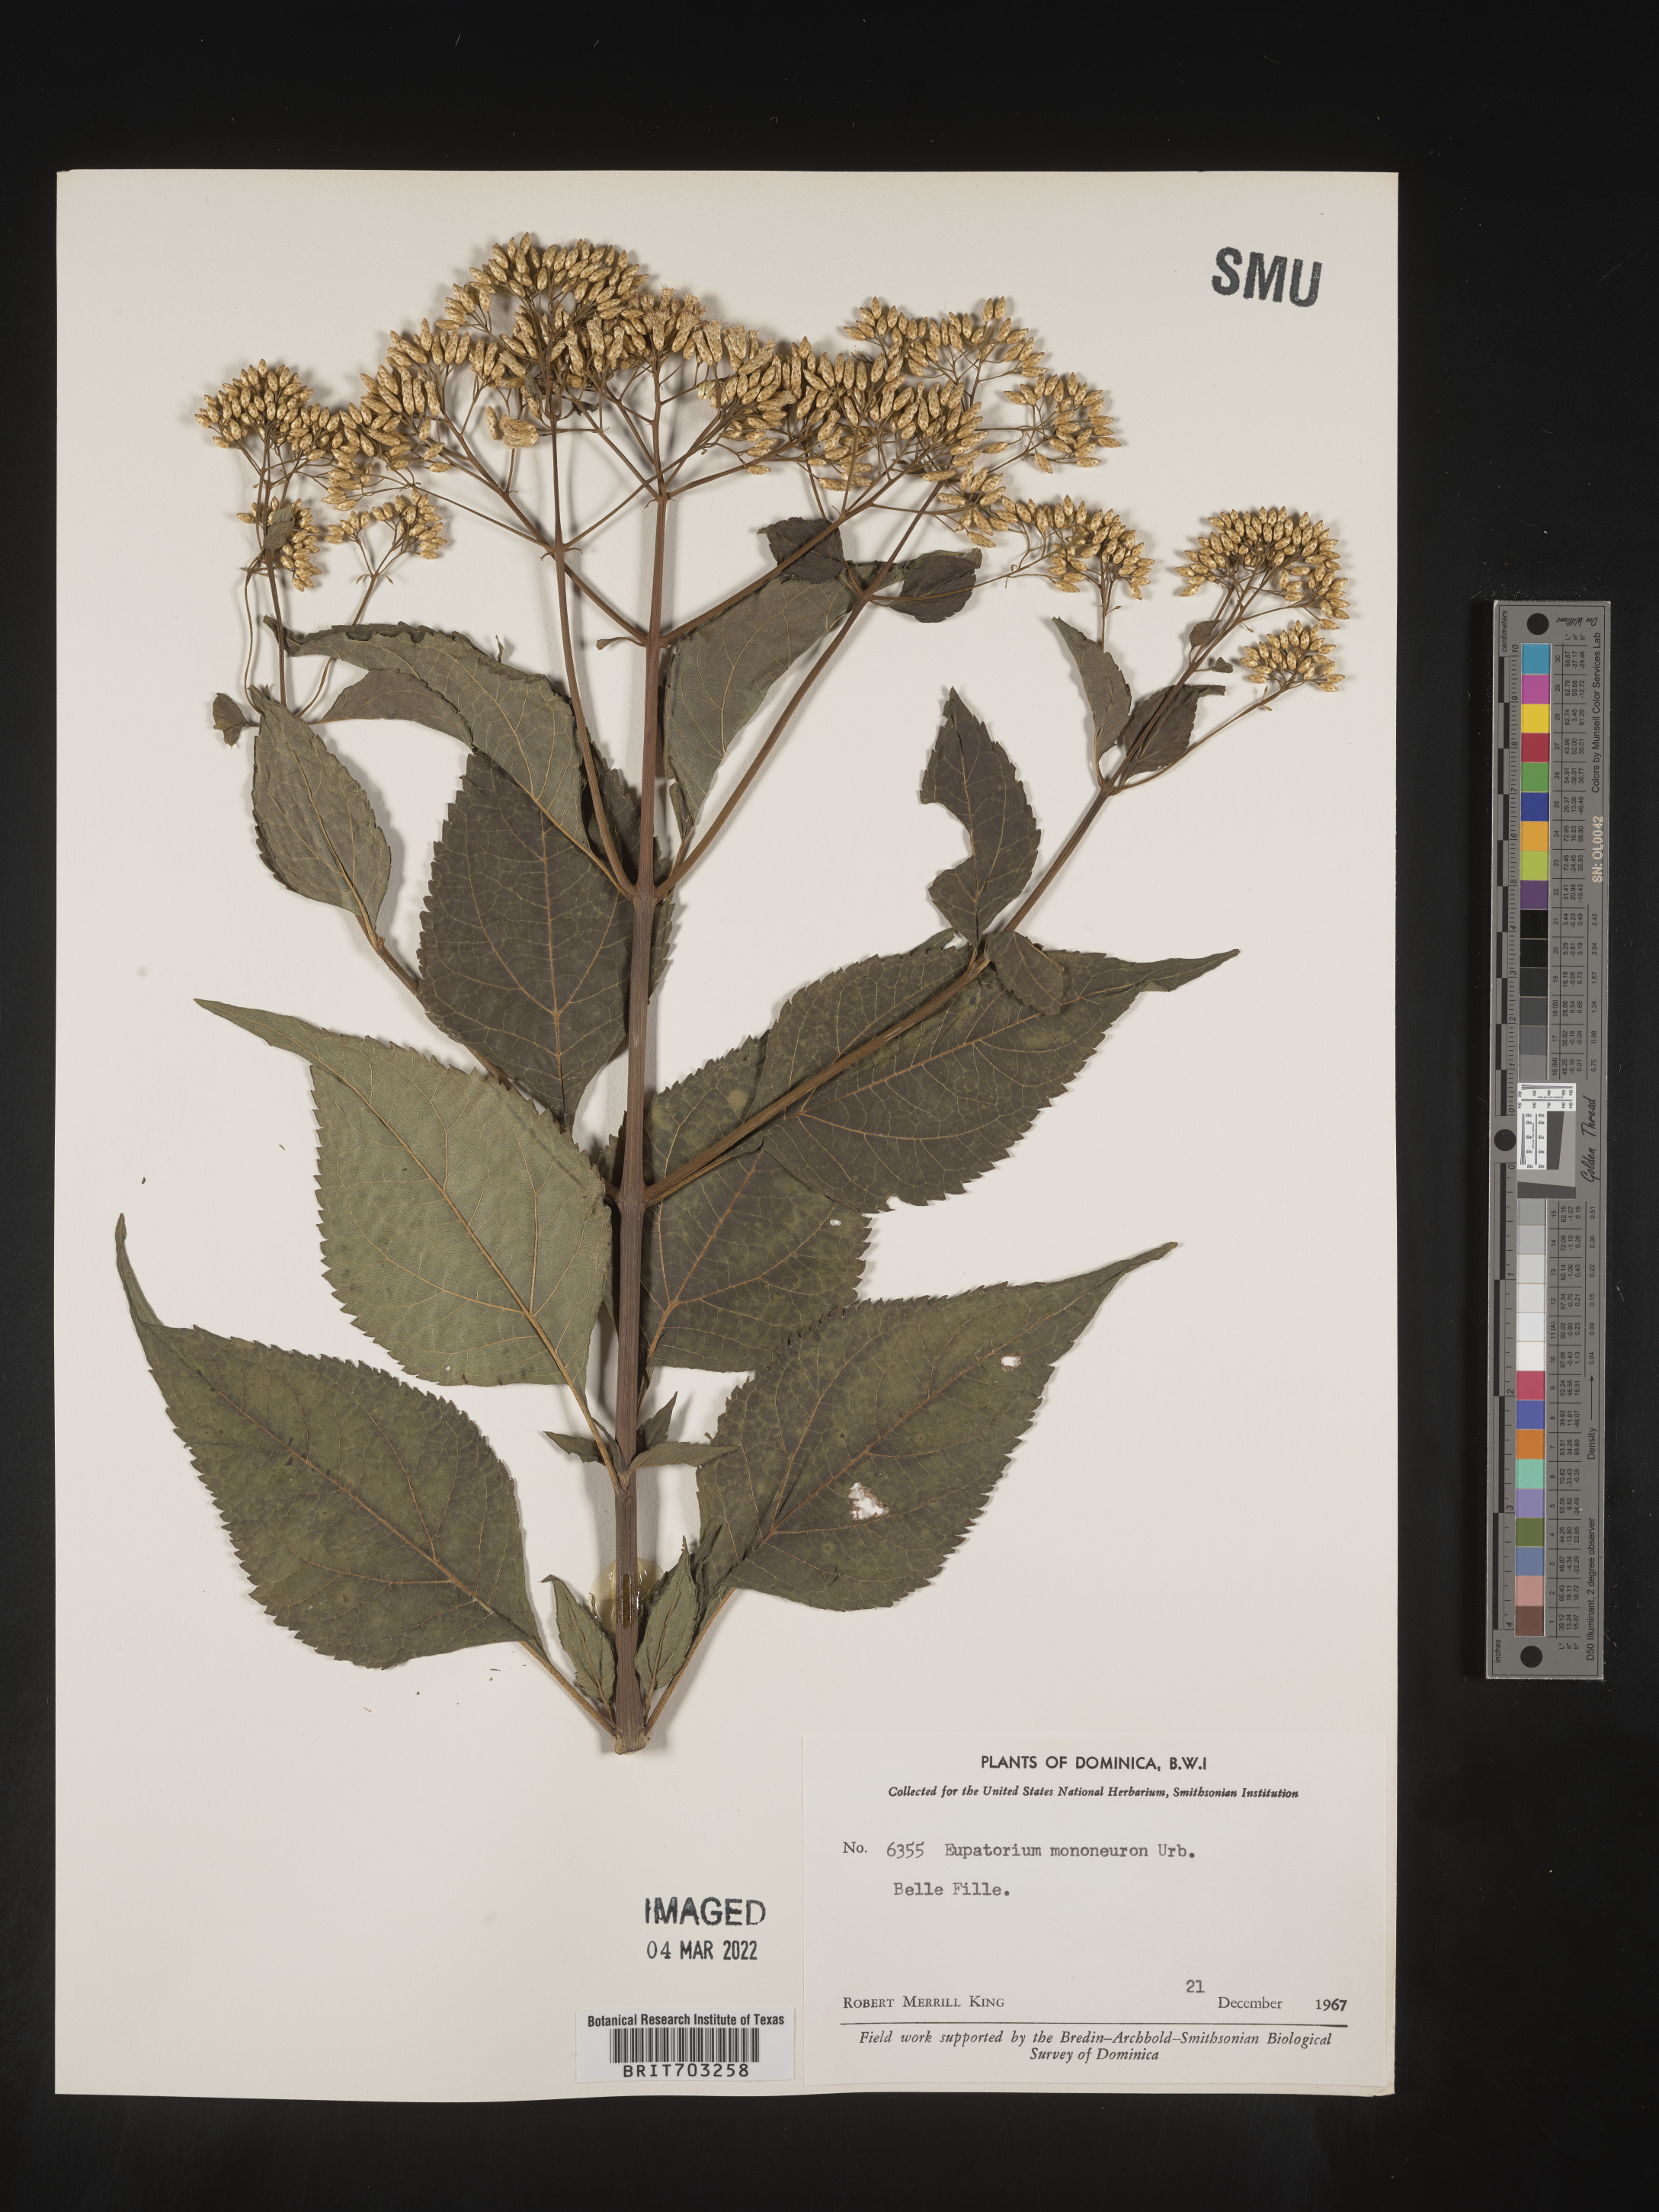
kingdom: Plantae
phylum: Tracheophyta
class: Magnoliopsida
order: Asterales
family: Asteraceae
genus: Eupatorium
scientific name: Eupatorium
